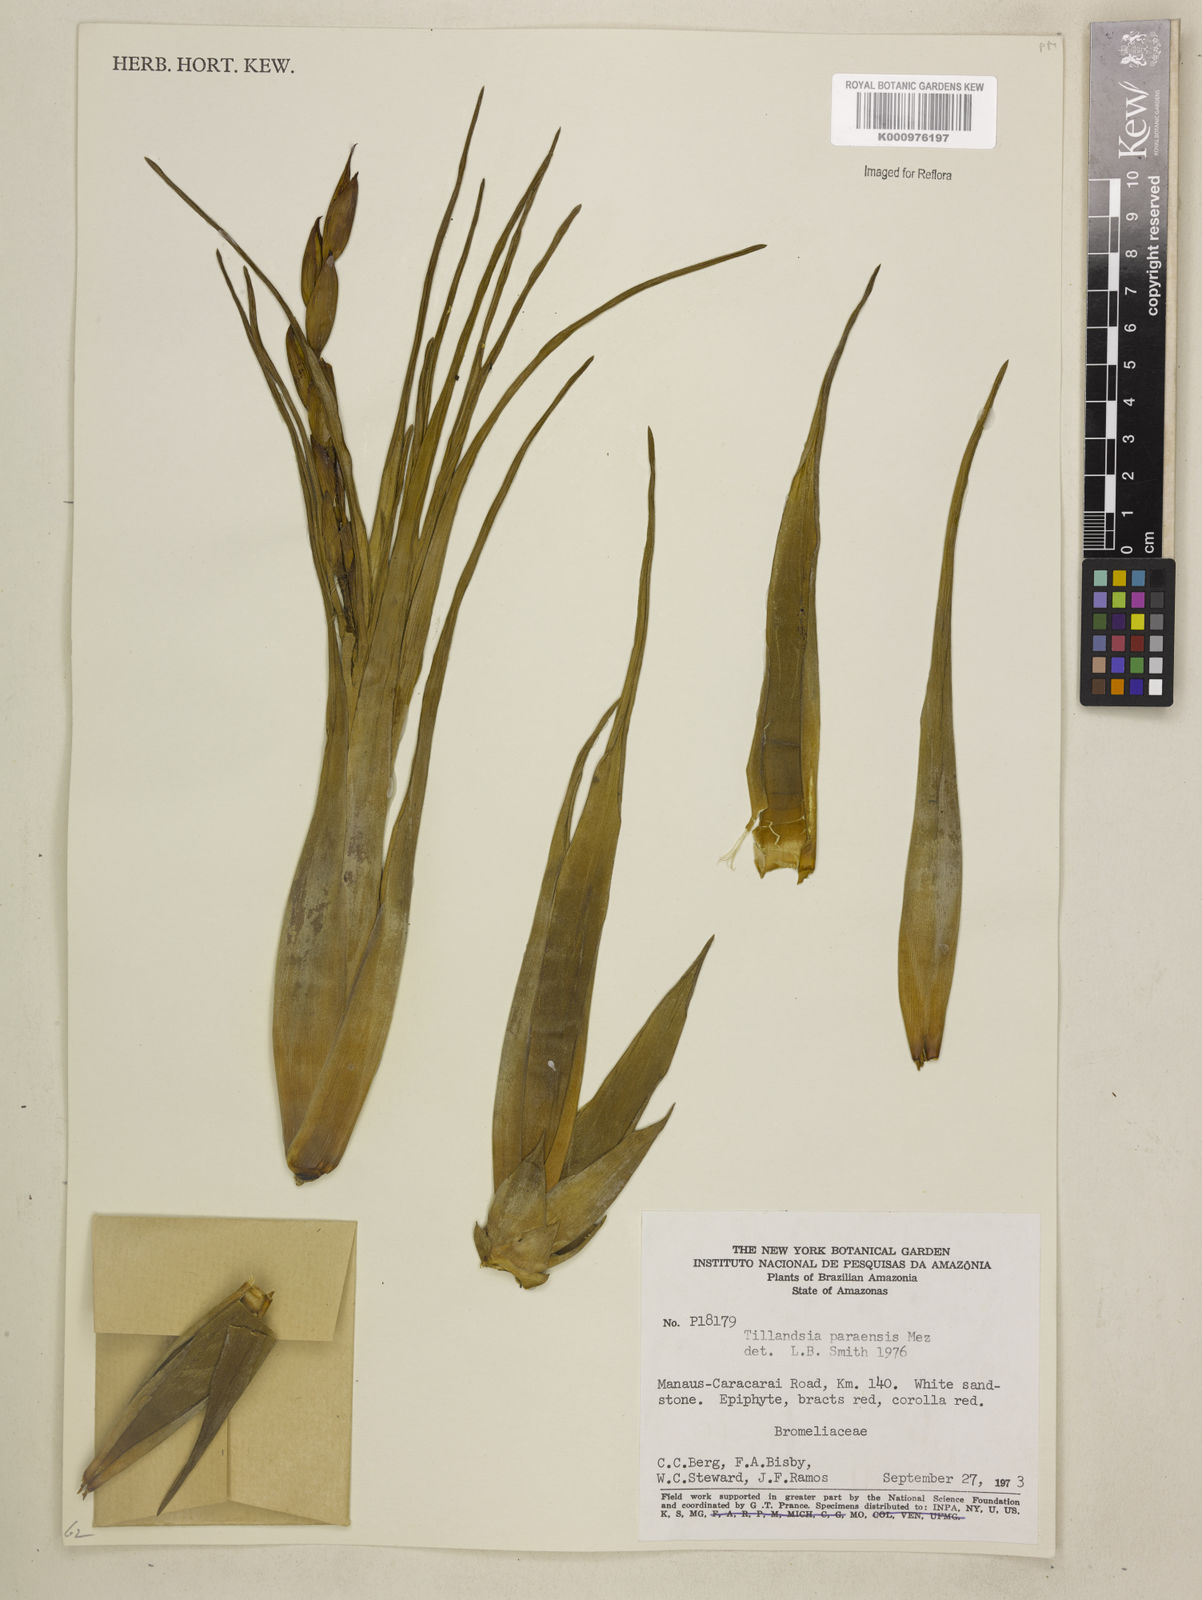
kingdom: Plantae
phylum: Tracheophyta
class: Liliopsida
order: Poales
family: Bromeliaceae
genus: Tillandsia
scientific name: Tillandsia paraensis
